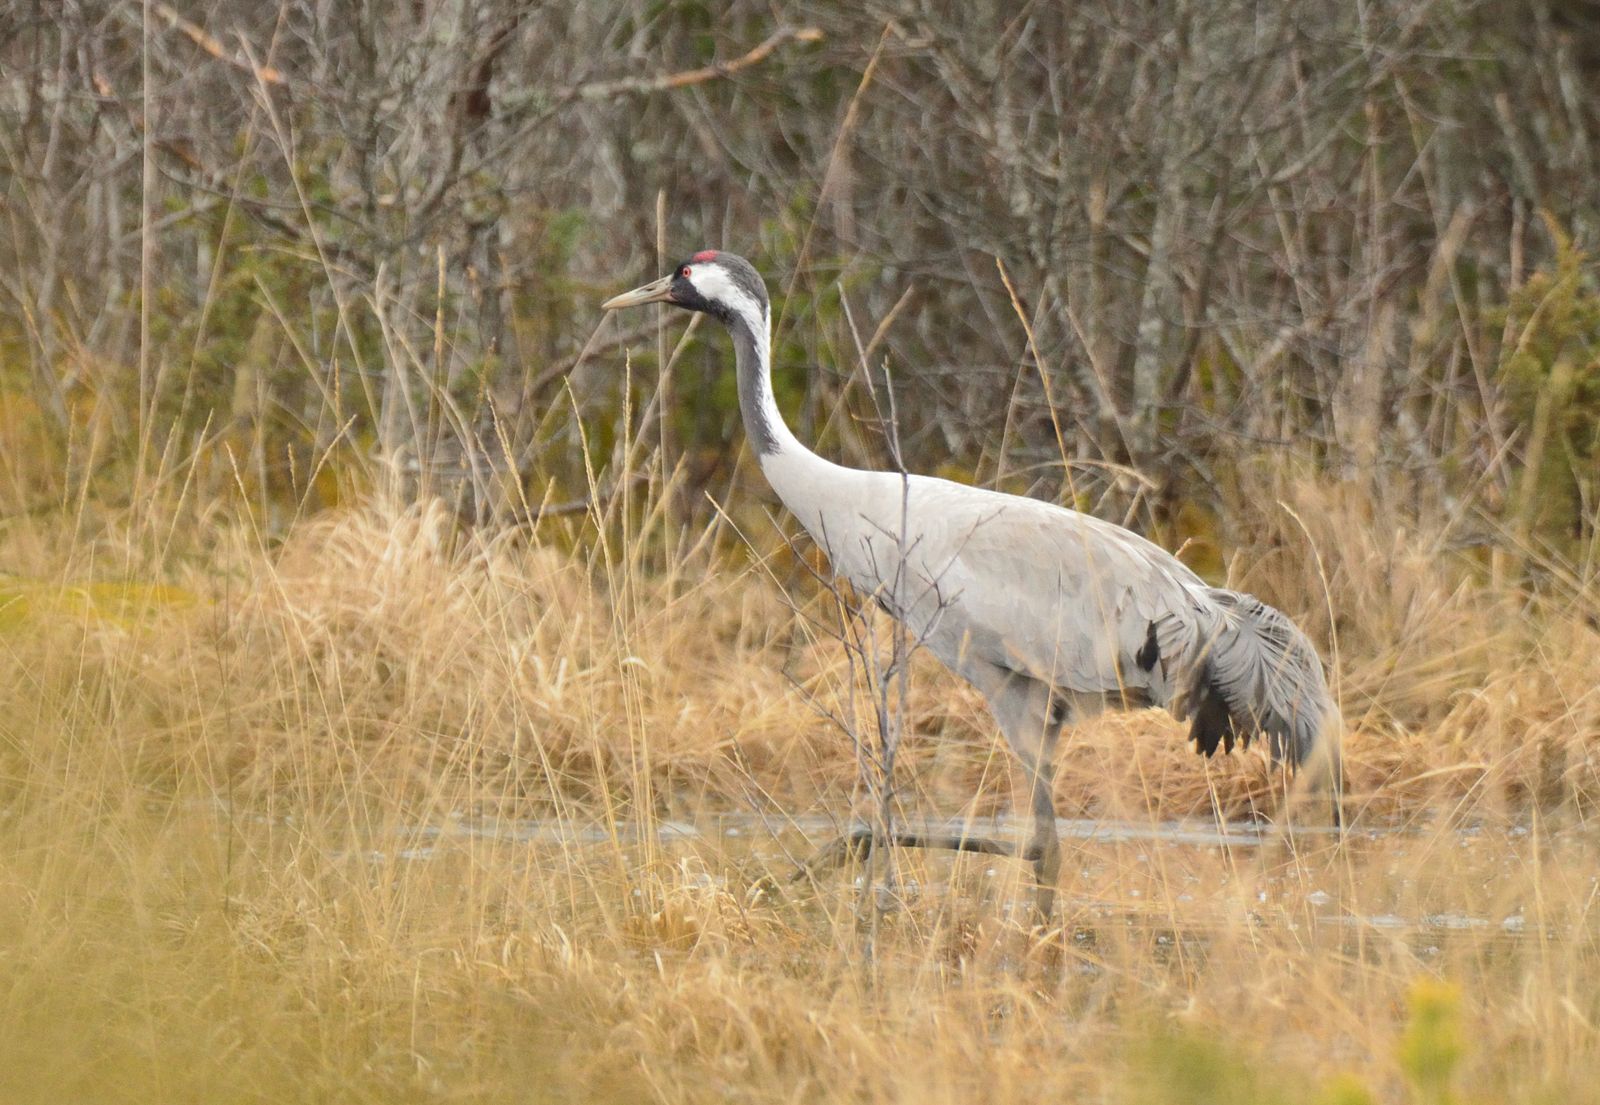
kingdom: Animalia
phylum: Chordata
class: Aves
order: Gruiformes
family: Gruidae
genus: Grus
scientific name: Grus grus
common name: Common crane
